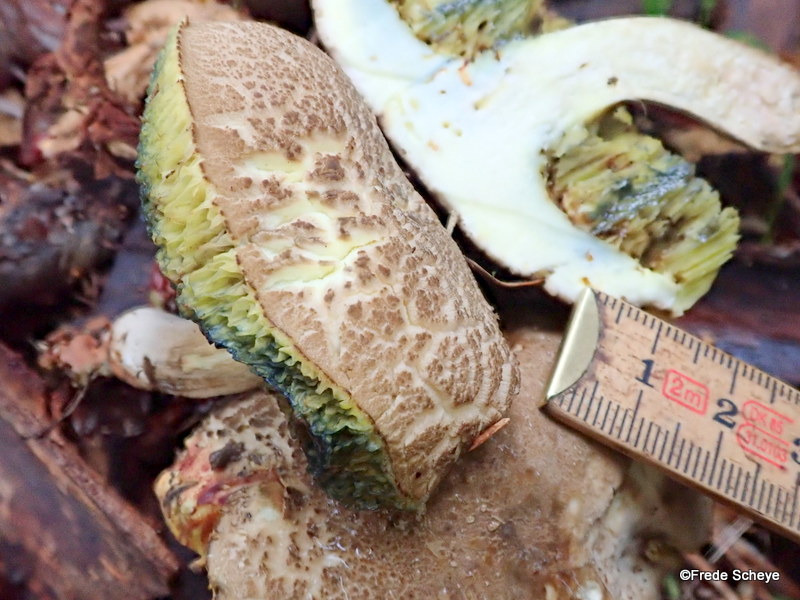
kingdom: Fungi
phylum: Basidiomycota
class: Agaricomycetes
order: Boletales
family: Boletaceae
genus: Xerocomellus
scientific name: Xerocomellus porosporus
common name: hvidsprukken rørhat
